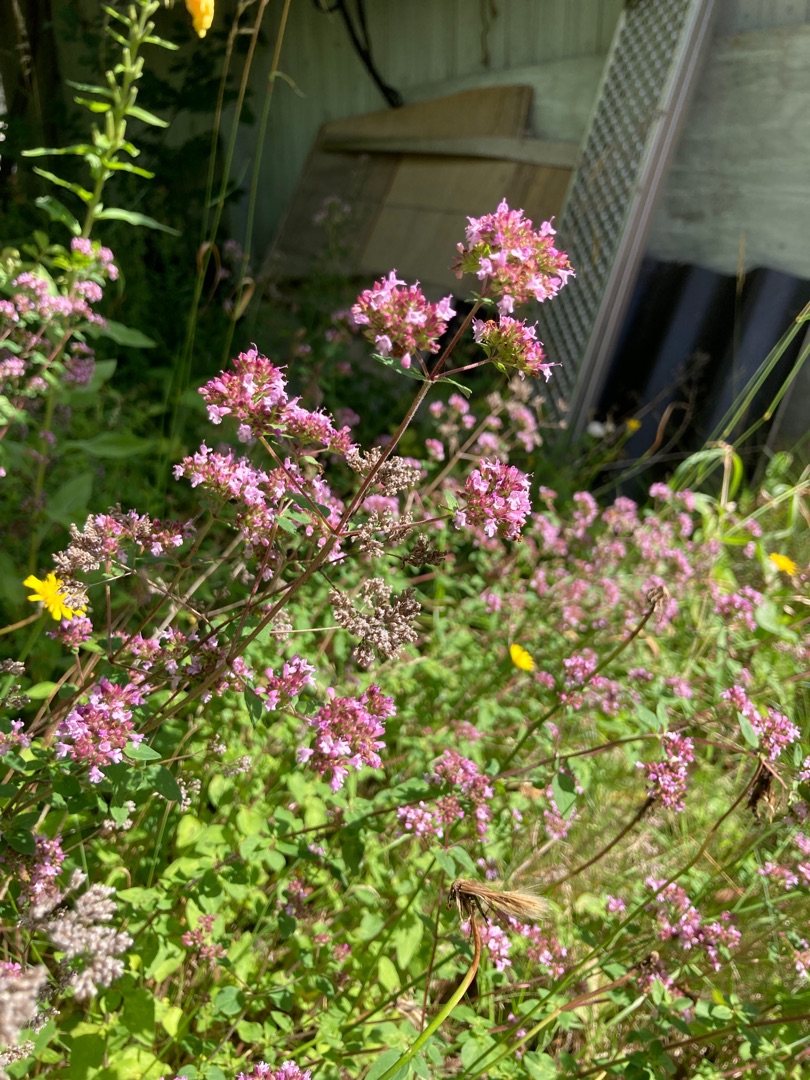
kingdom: Plantae
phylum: Tracheophyta
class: Magnoliopsida
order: Lamiales
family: Lamiaceae
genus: Origanum
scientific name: Origanum vulgare
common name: Merian
